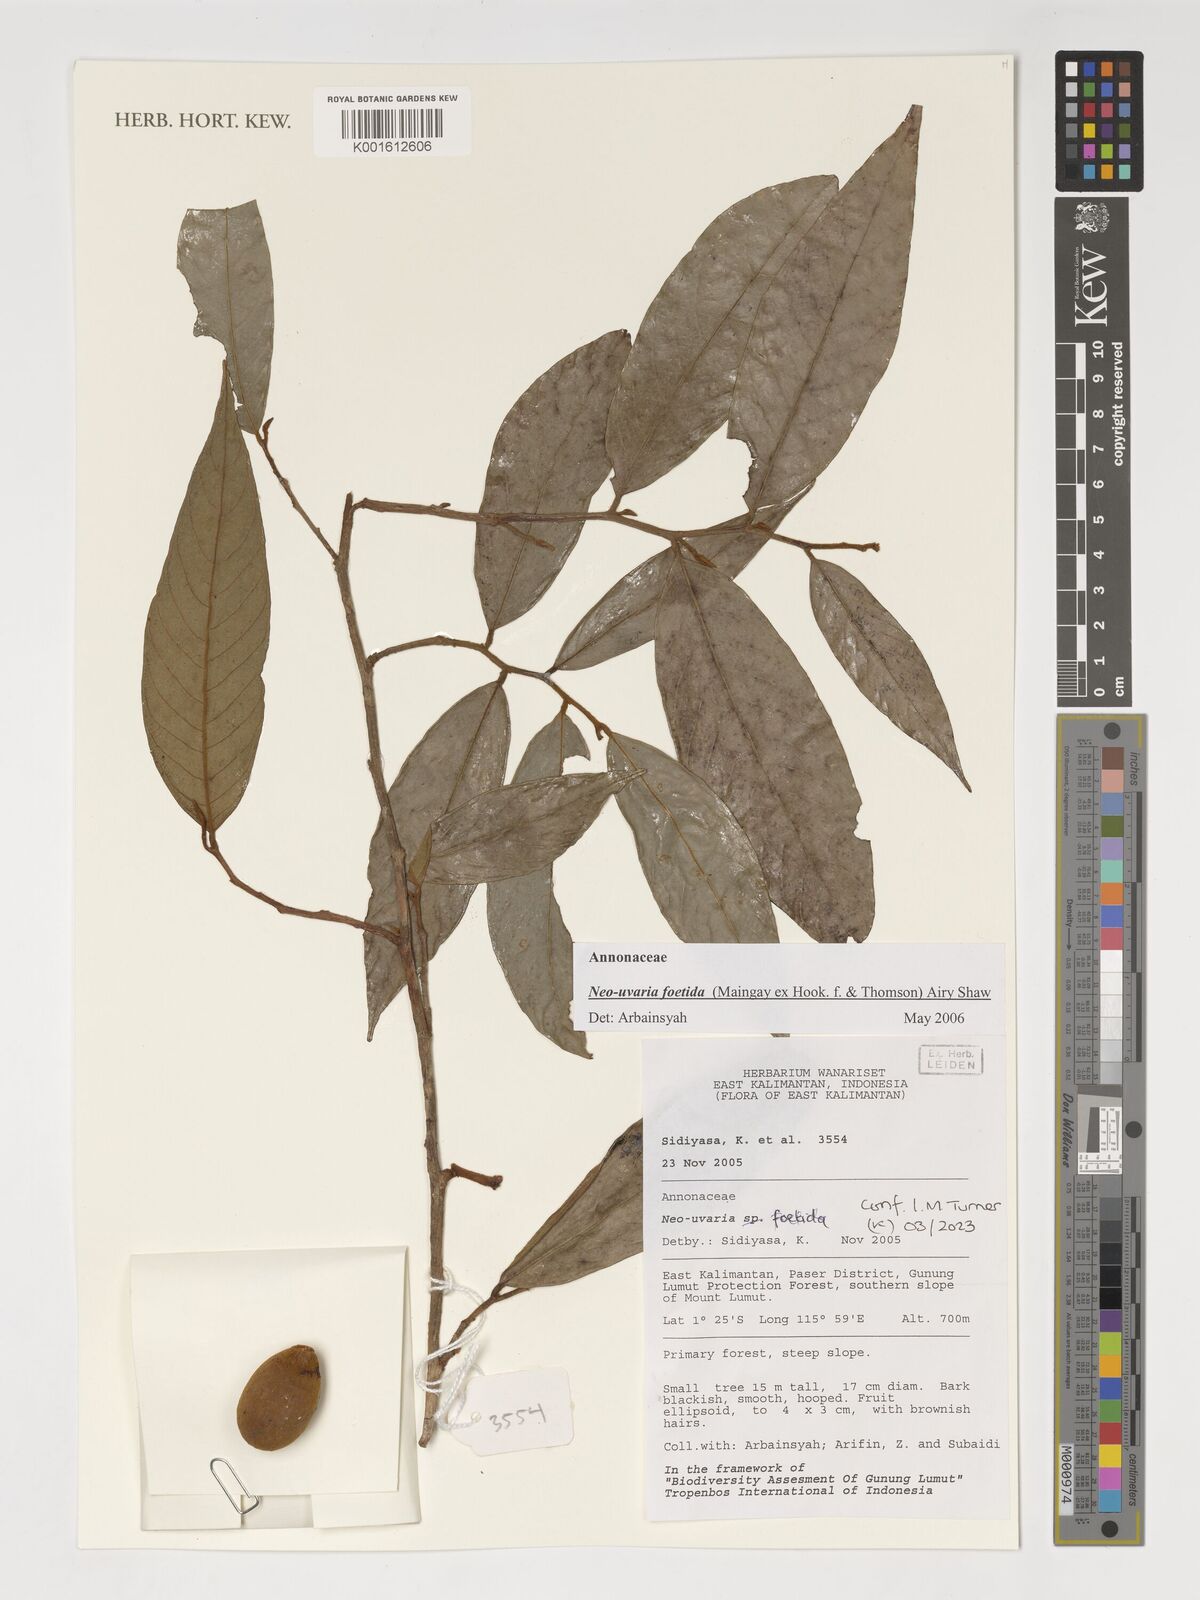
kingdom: Plantae
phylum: Tracheophyta
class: Magnoliopsida
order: Magnoliales
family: Annonaceae
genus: Neouvaria
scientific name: Neouvaria acuminatissima
